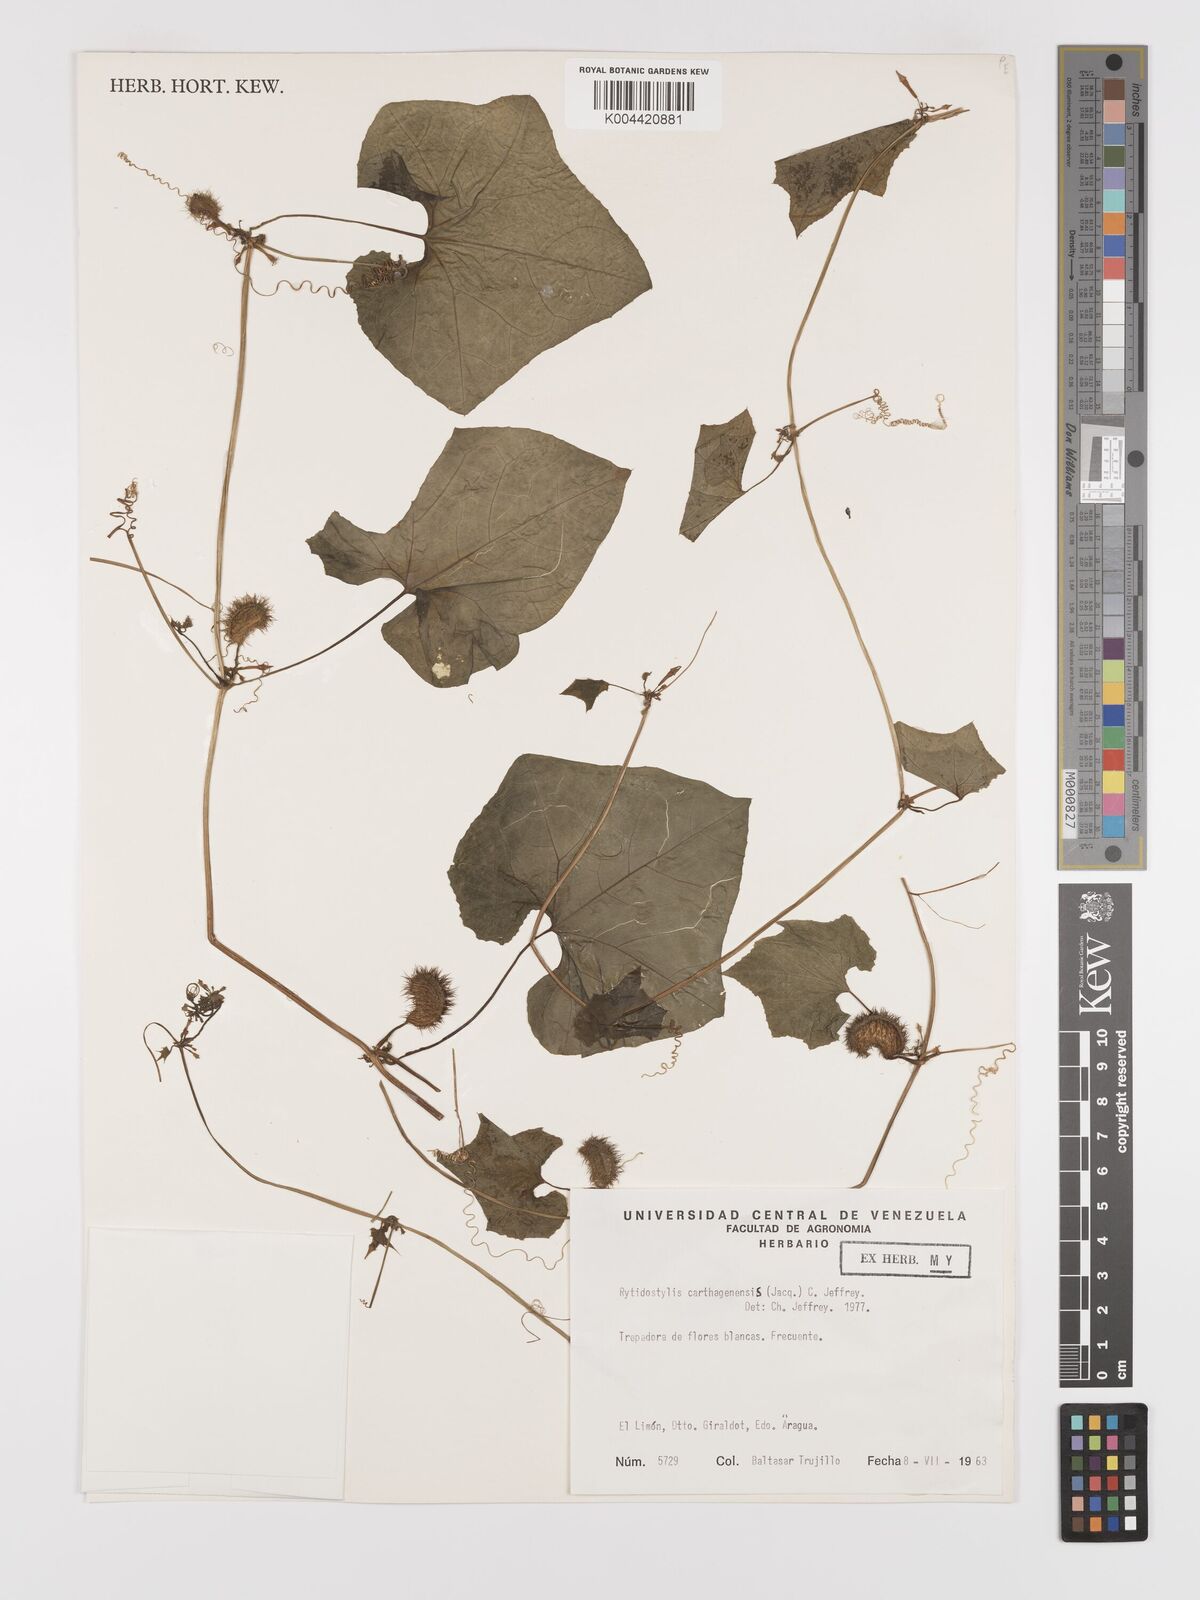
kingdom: Plantae
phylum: Tracheophyta
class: Magnoliopsida
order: Cucurbitales
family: Cucurbitaceae
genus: Cyclanthera
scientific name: Cyclanthera carthagenensis
